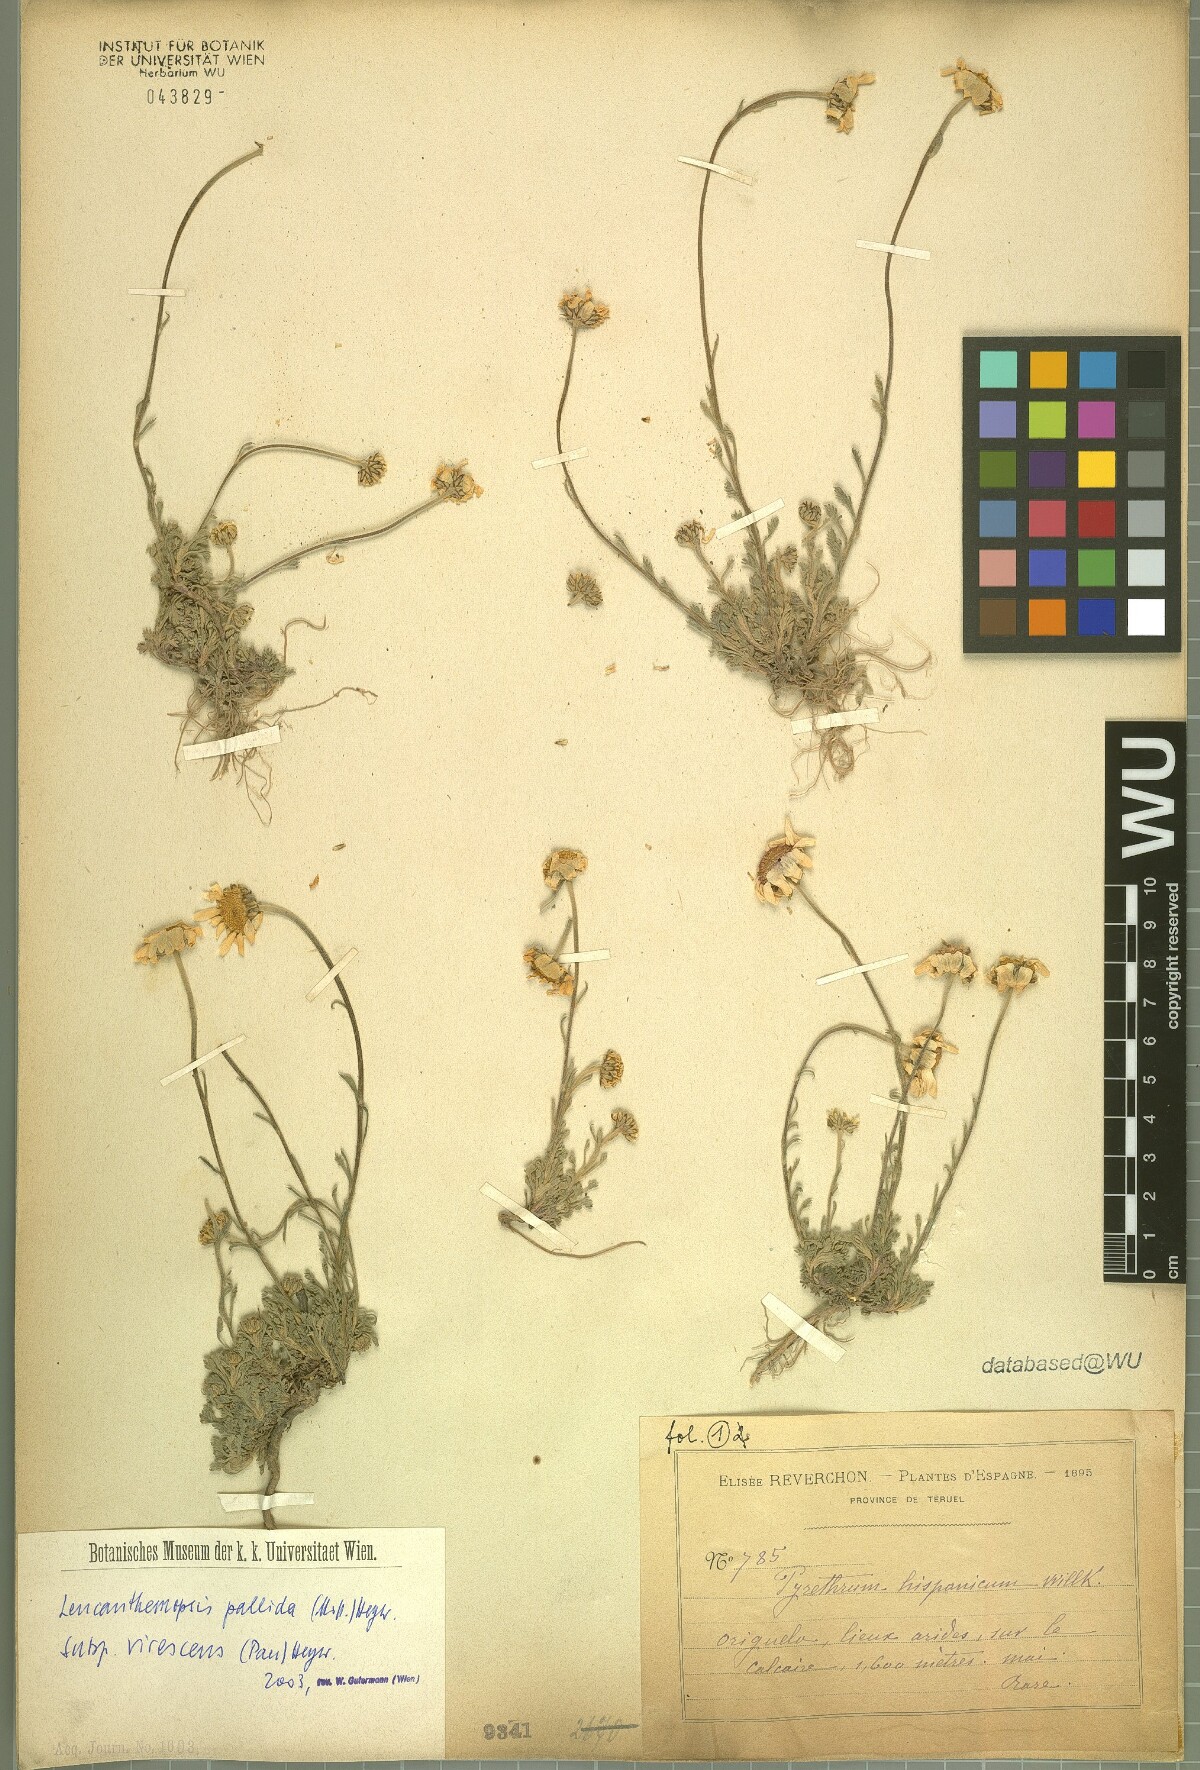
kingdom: Plantae
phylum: Tracheophyta
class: Magnoliopsida
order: Asterales
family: Asteraceae
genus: Leucanthemopsis
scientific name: Leucanthemopsis pallida
